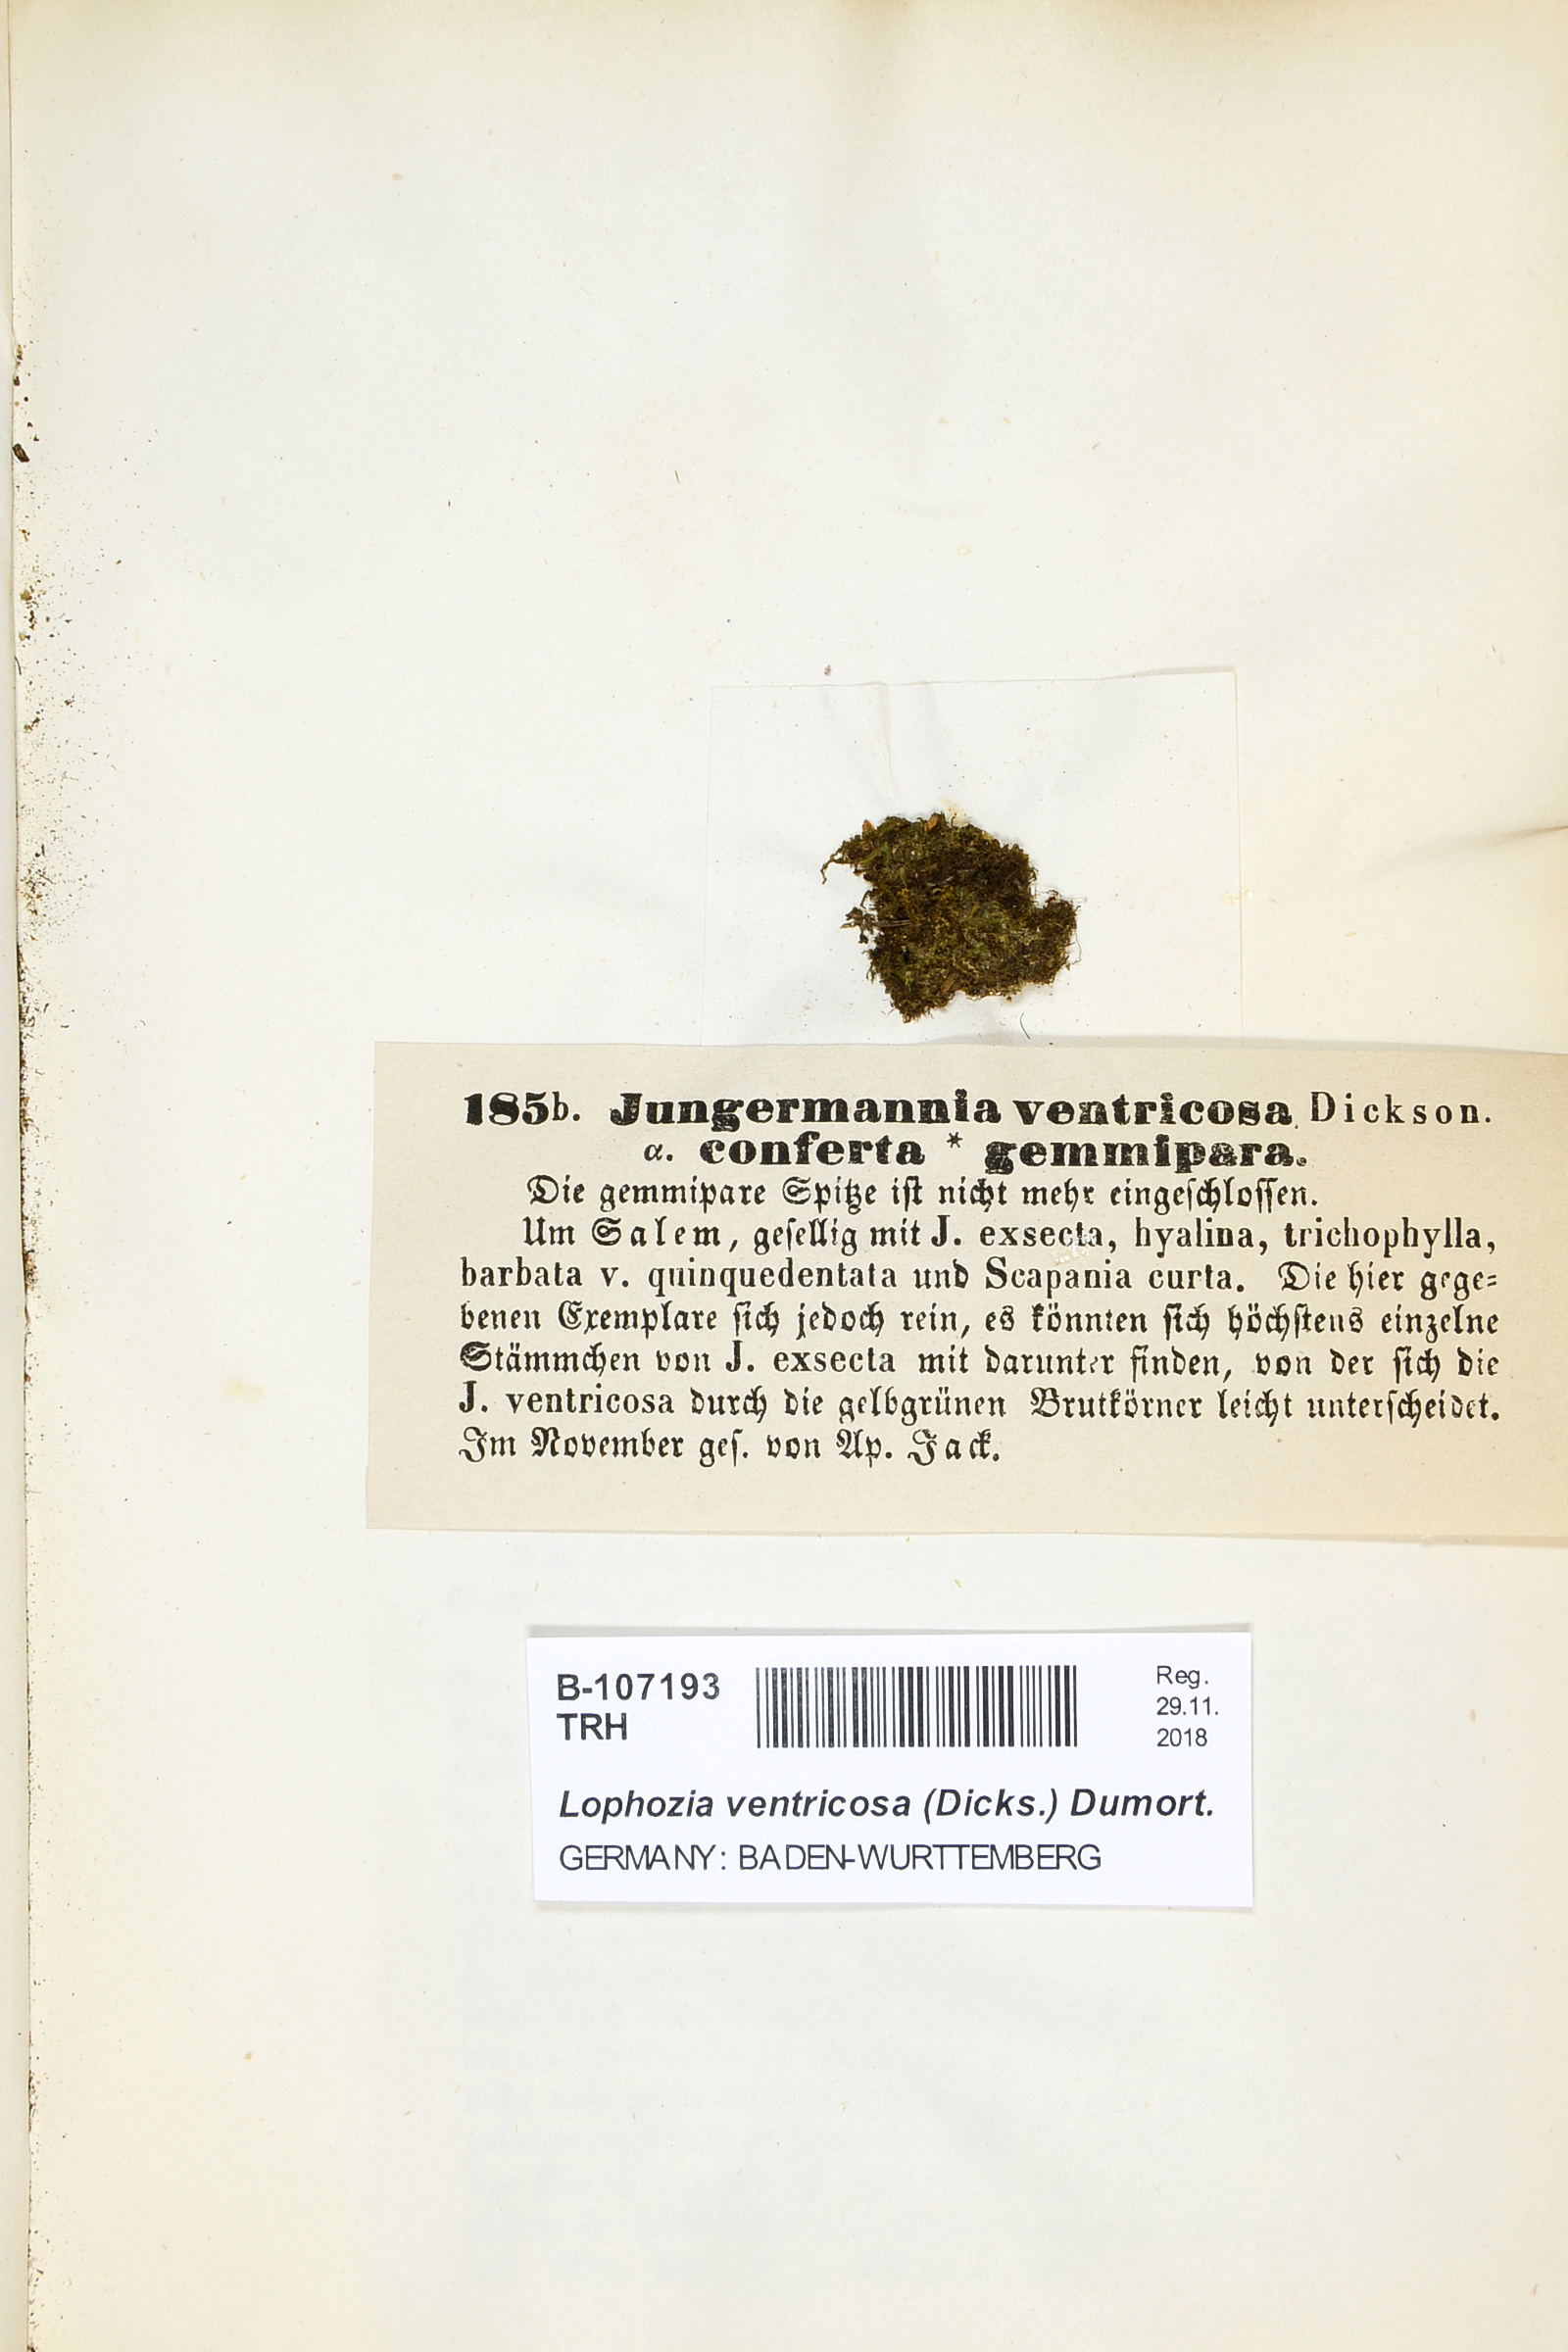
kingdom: Plantae
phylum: Marchantiophyta
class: Jungermanniopsida
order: Jungermanniales
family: Lophoziaceae
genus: Lophozia
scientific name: Lophozia ventricosa
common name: Tumid notchwort
